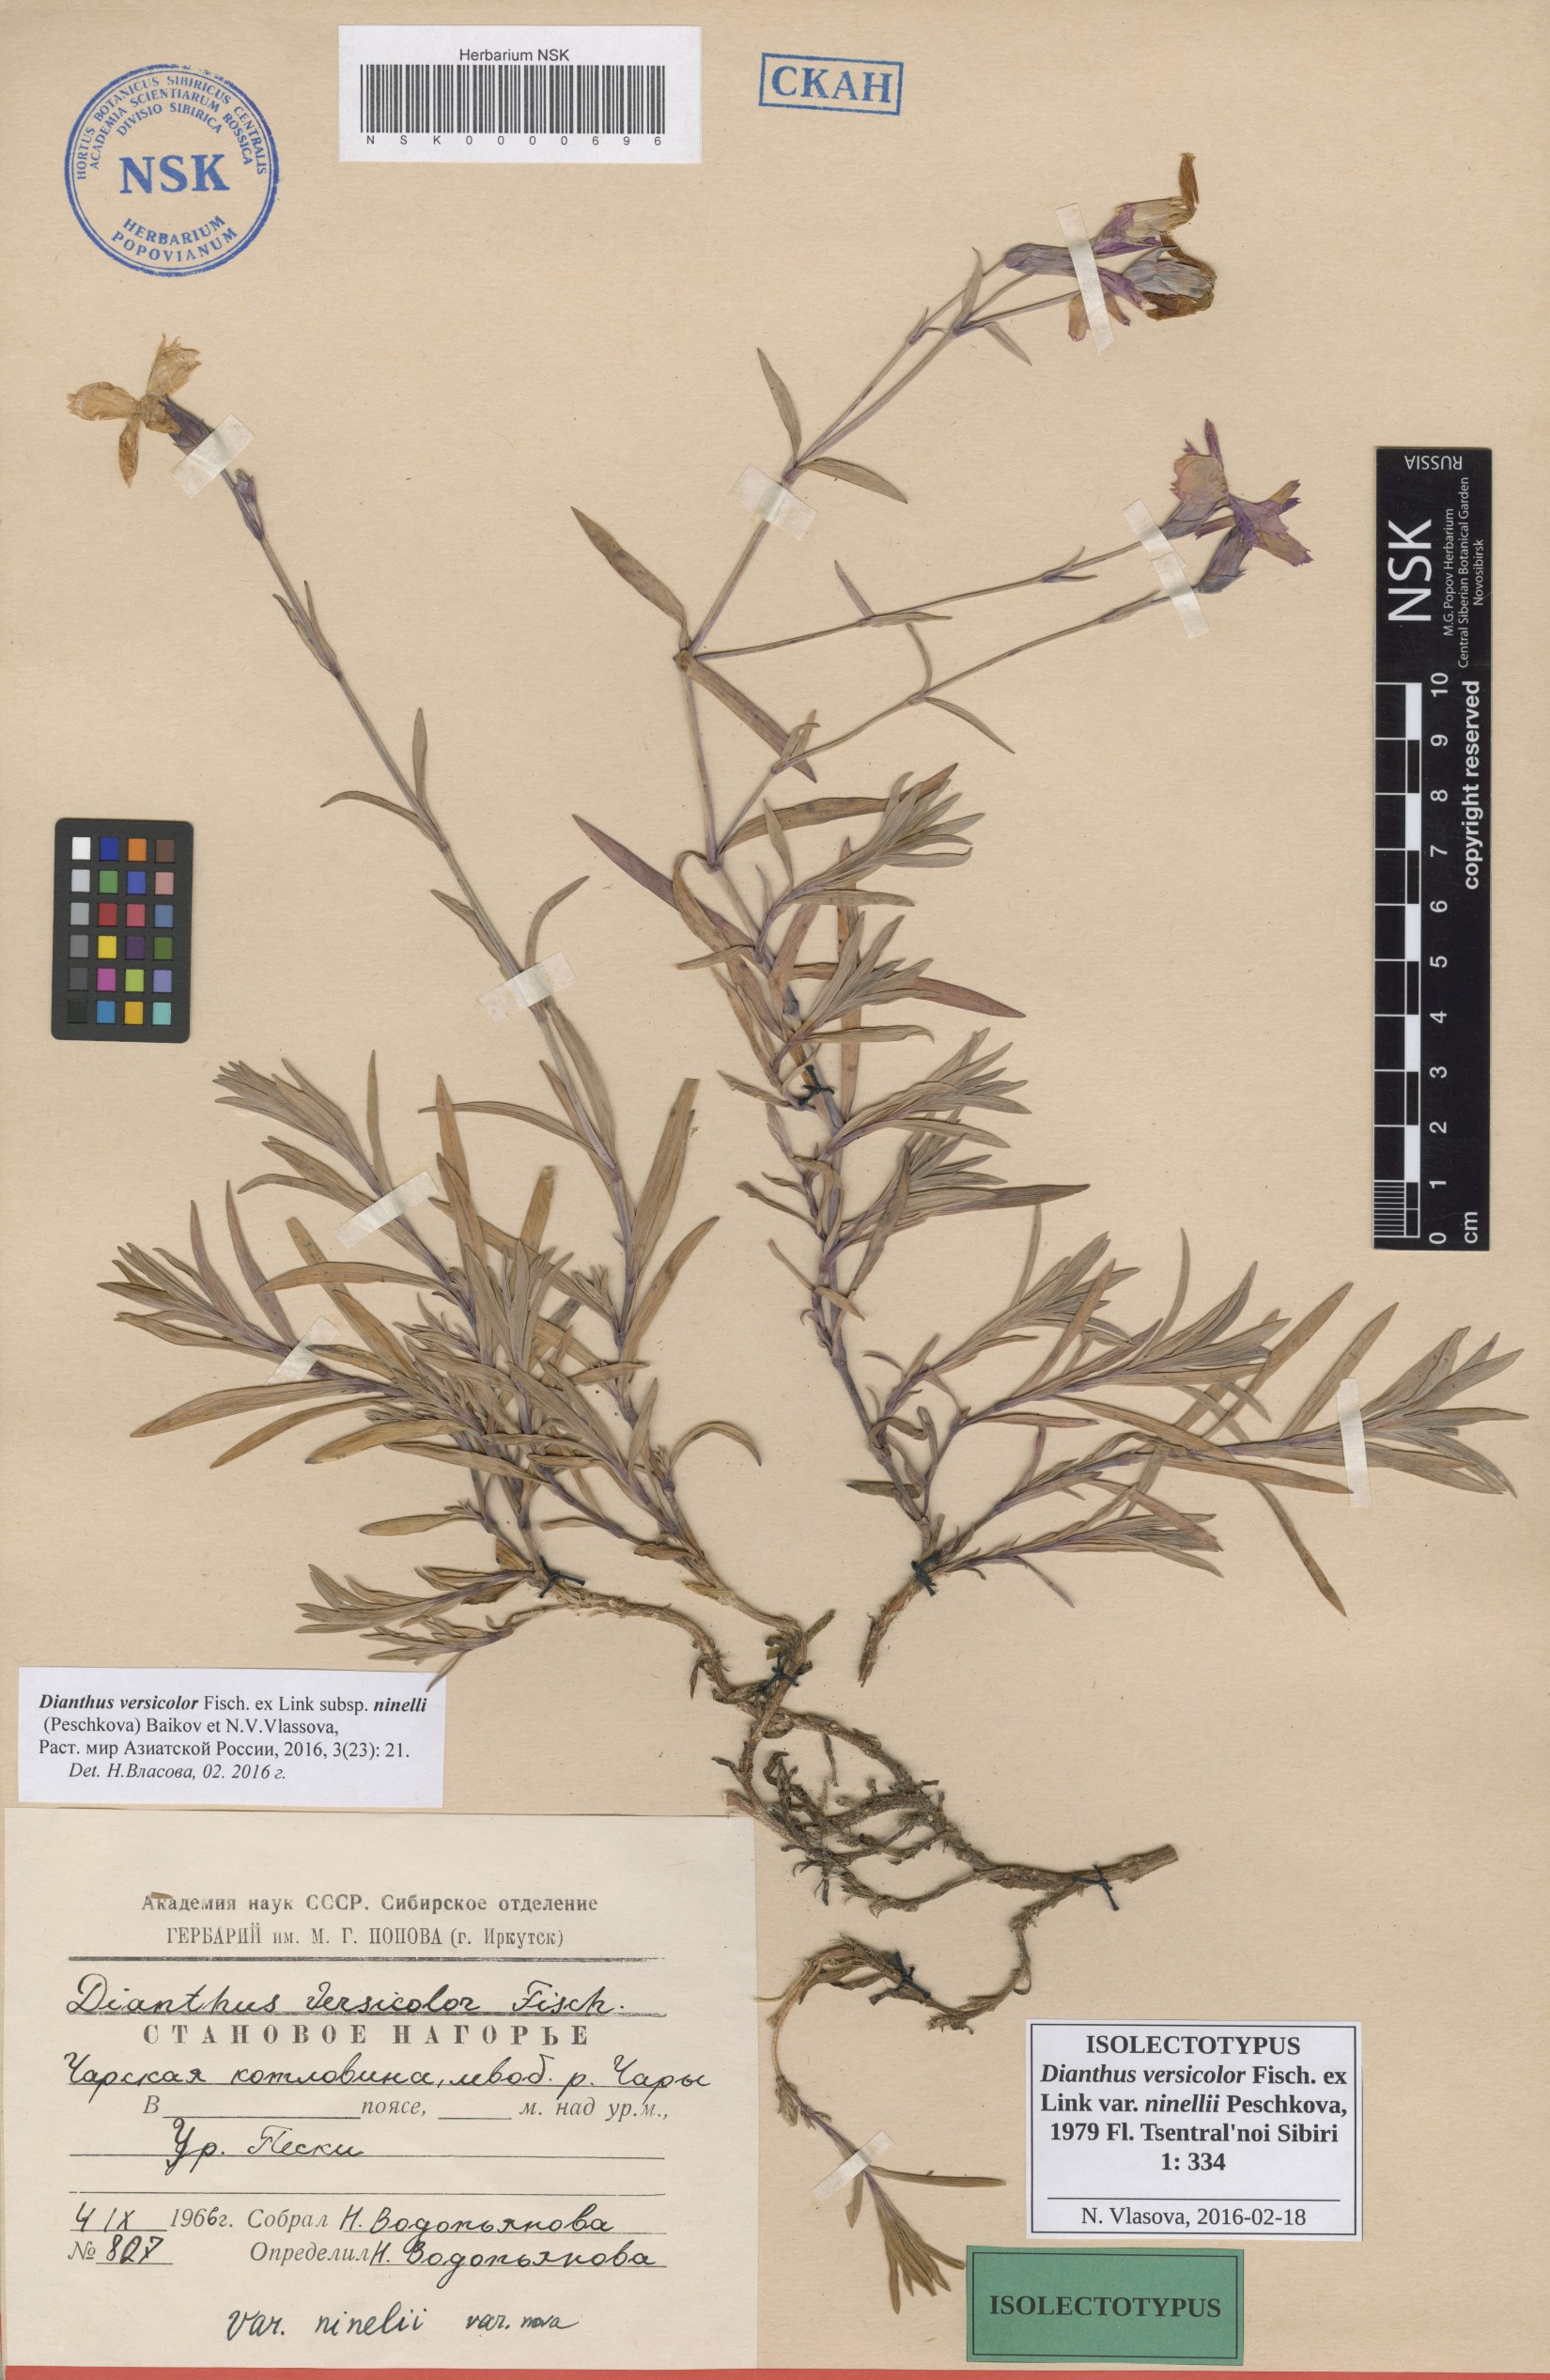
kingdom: Plantae
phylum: Tracheophyta
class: Magnoliopsida
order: Caryophyllales
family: Caryophyllaceae
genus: Dianthus
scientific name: Dianthus chinensis
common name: Rainbow pink
